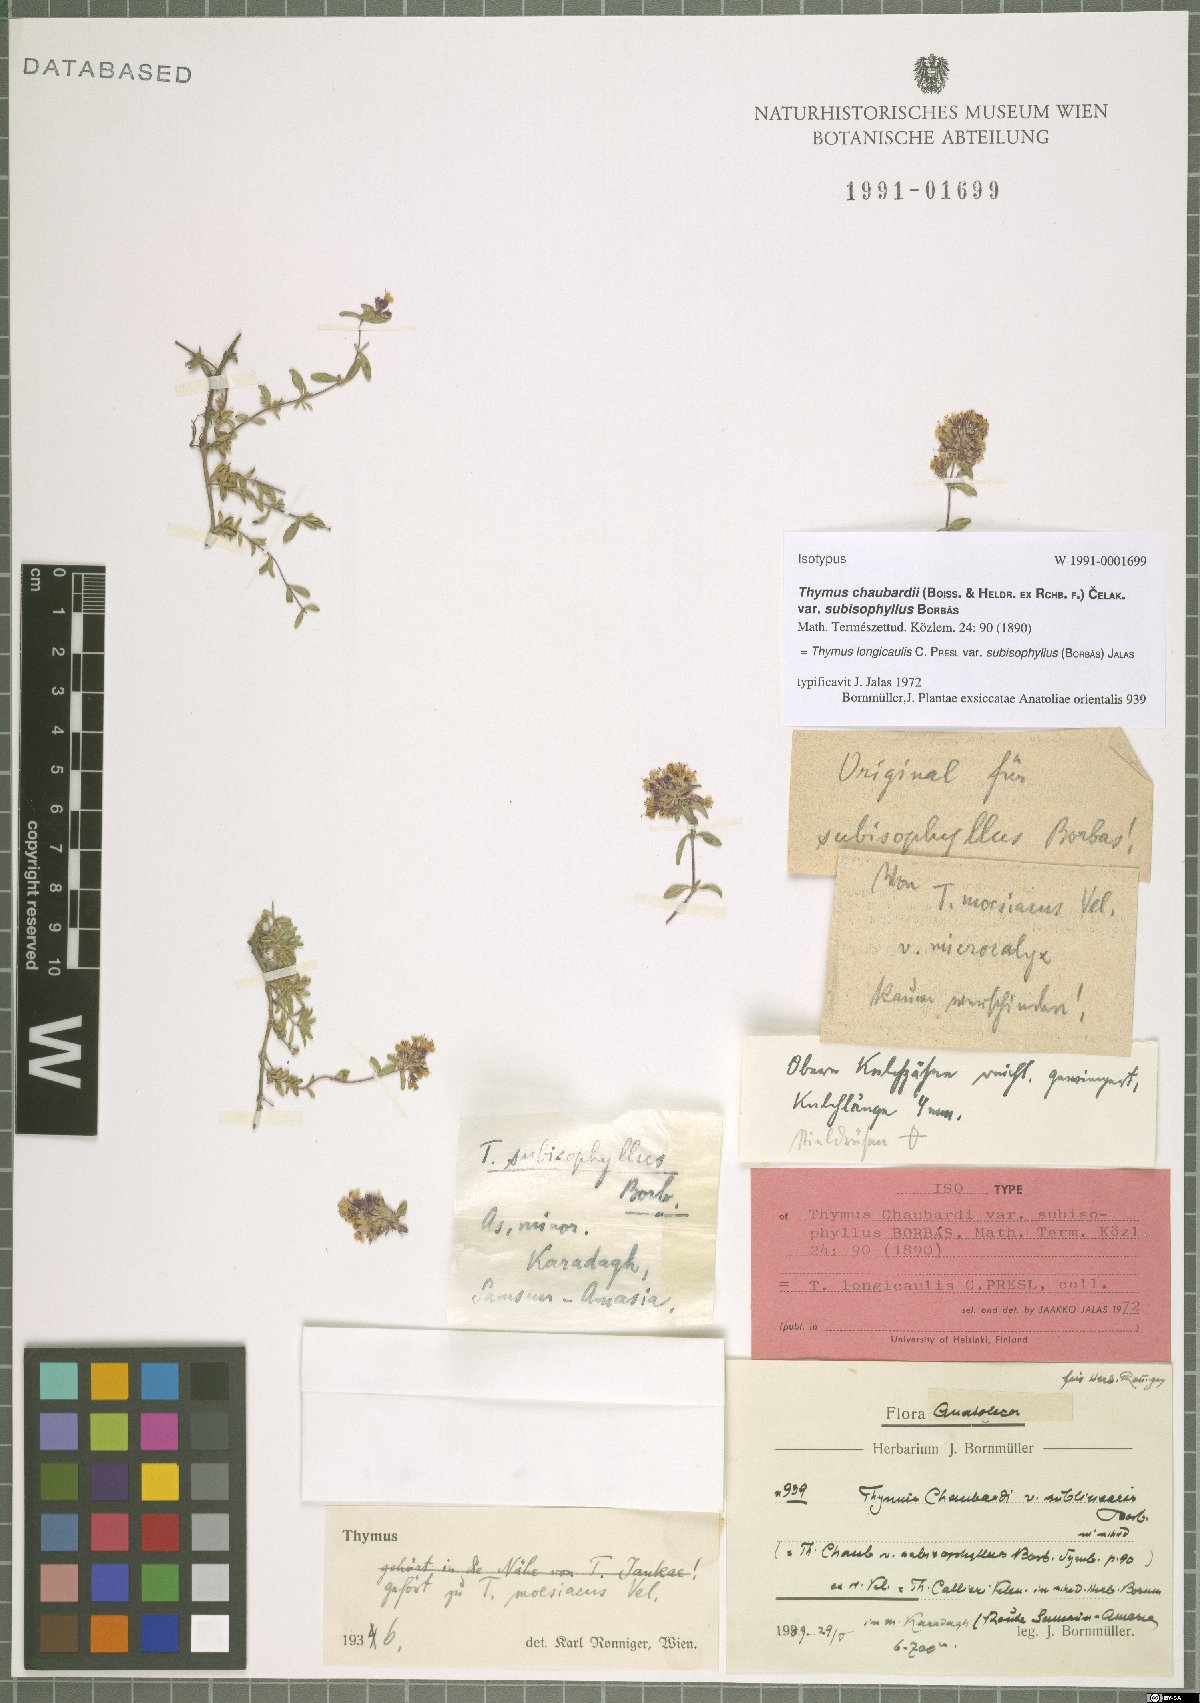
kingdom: Plantae
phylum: Tracheophyta
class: Magnoliopsida
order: Lamiales
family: Lamiaceae
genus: Thymus
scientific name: Thymus longicaulis
